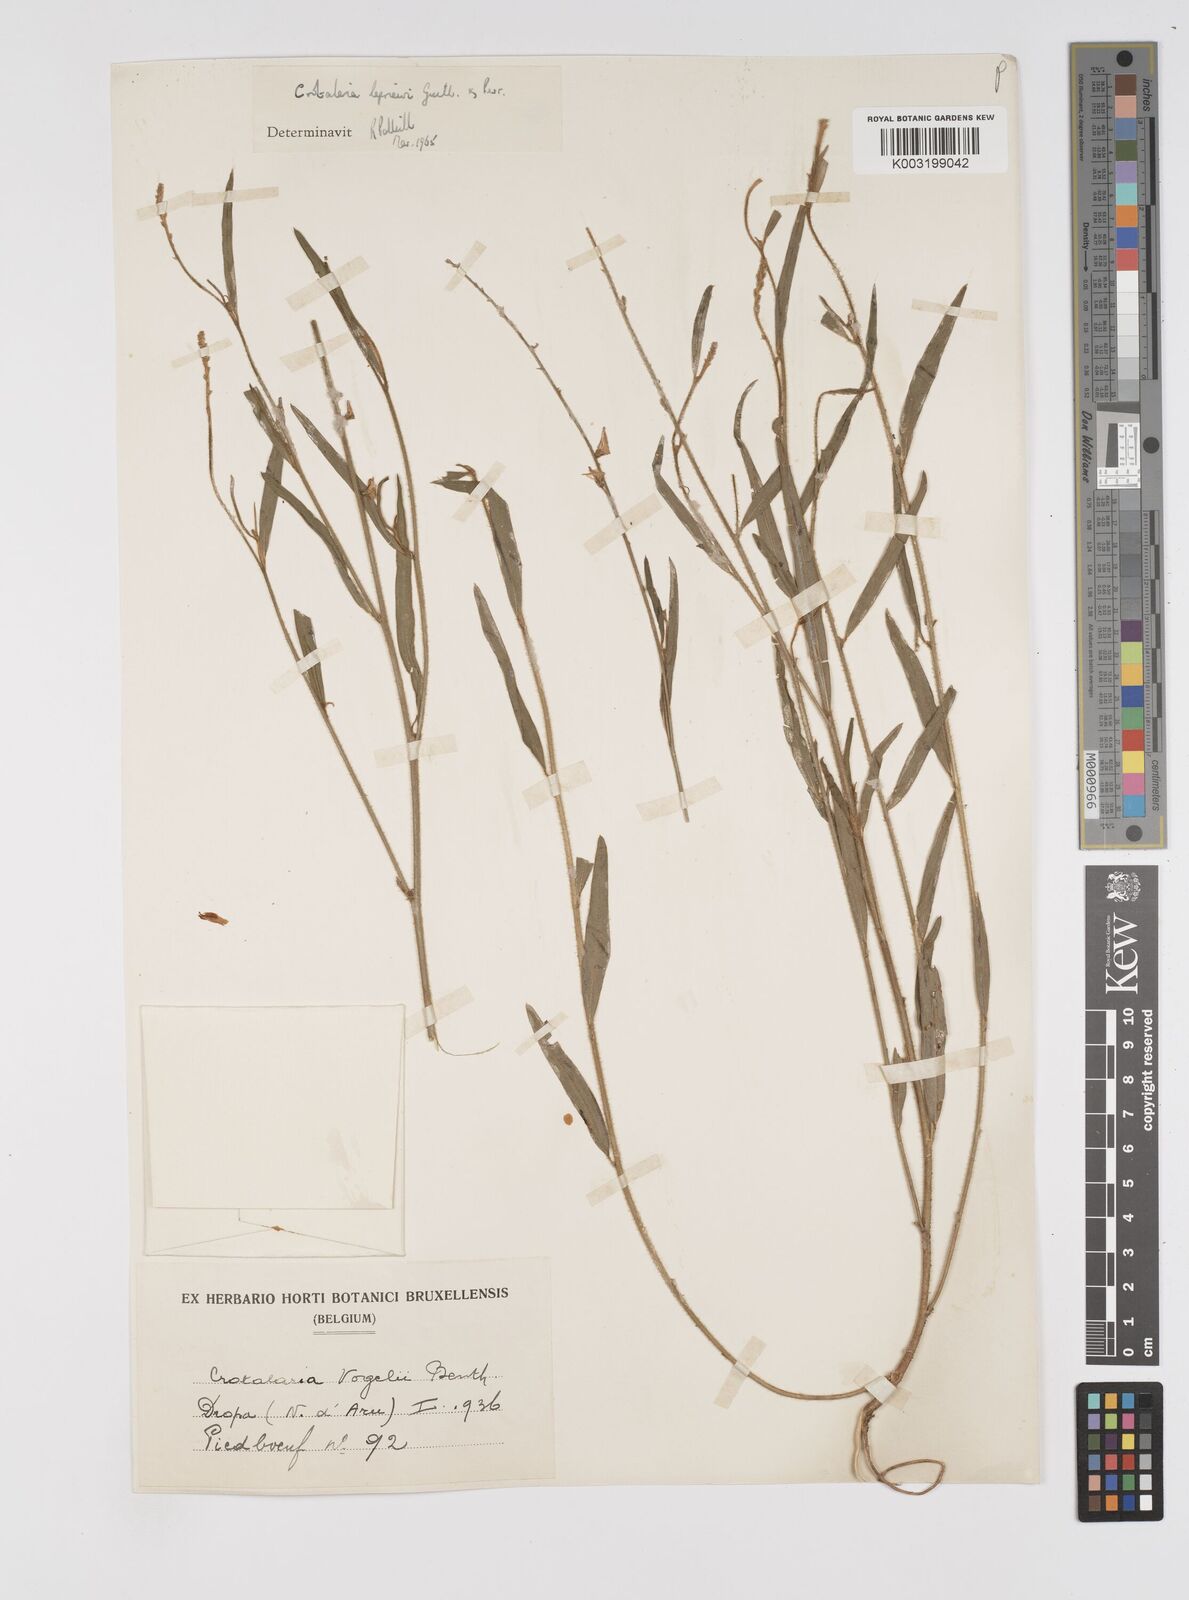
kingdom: Plantae
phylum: Tracheophyta
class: Magnoliopsida
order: Fabales
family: Fabaceae
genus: Crotalaria
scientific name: Crotalaria leprieurii
